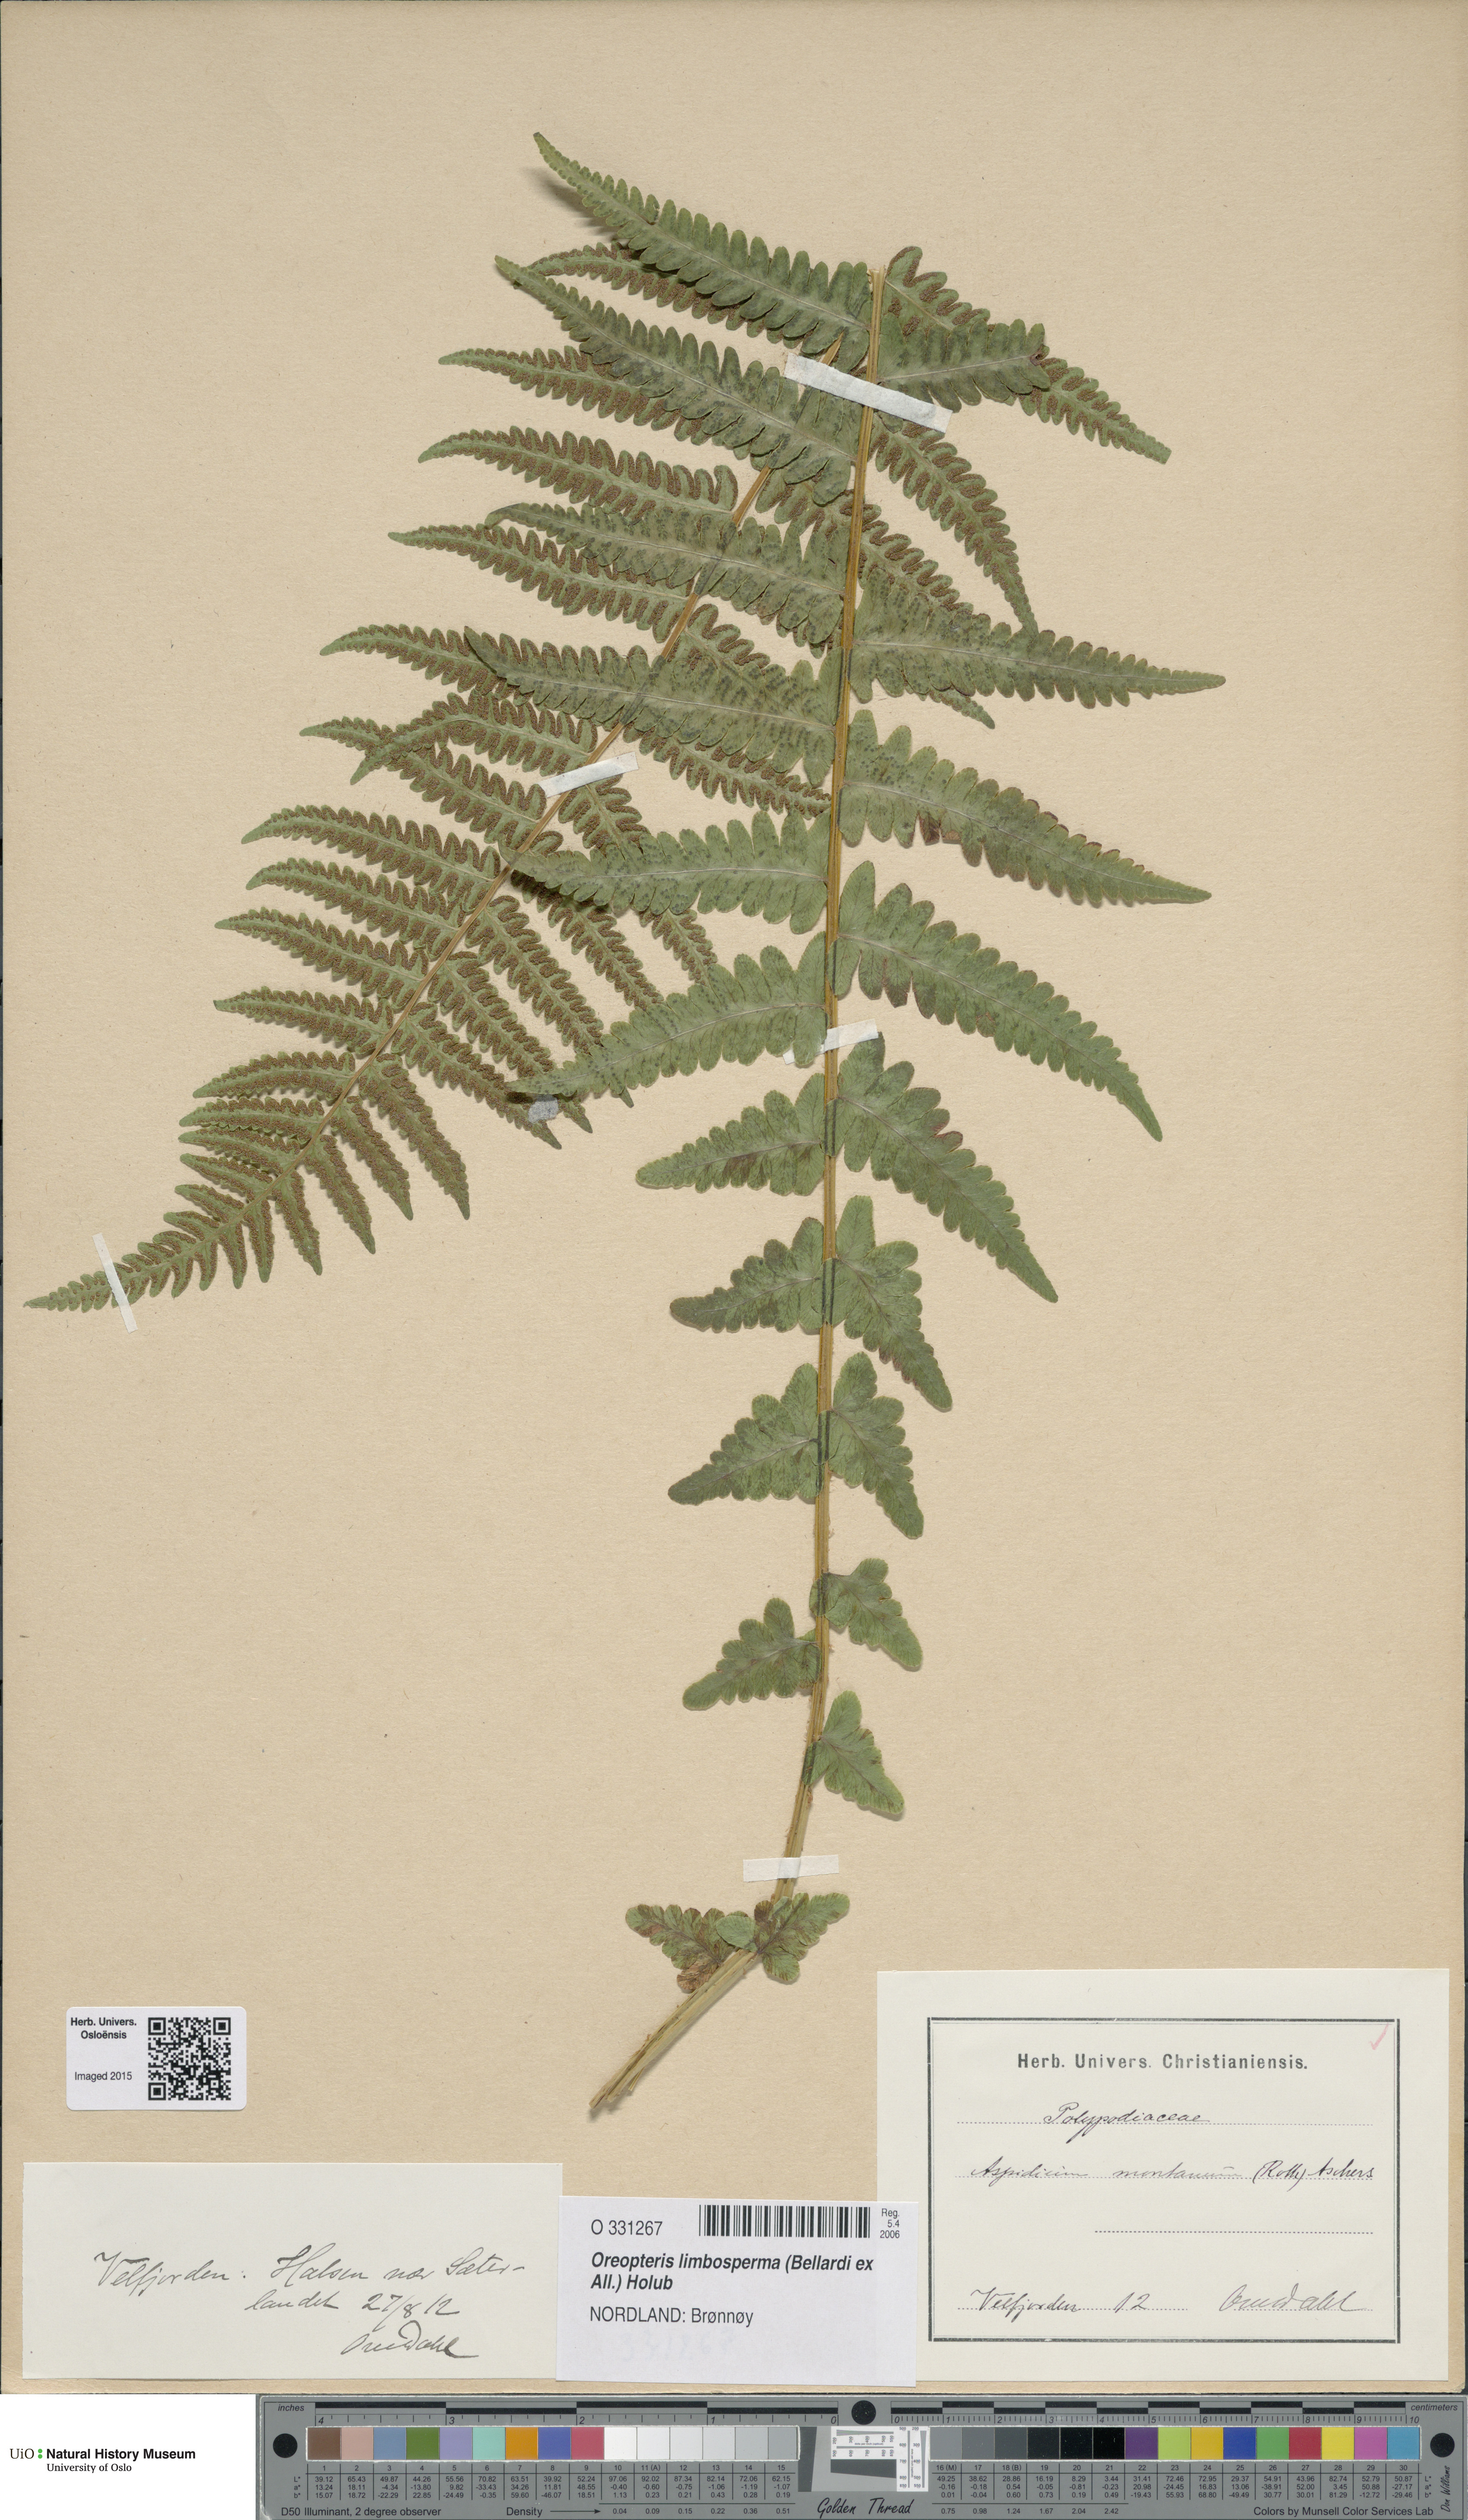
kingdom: Plantae
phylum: Tracheophyta
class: Polypodiopsida
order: Polypodiales
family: Thelypteridaceae
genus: Oreopteris
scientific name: Oreopteris limbosperma
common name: Lemon-scented fern
